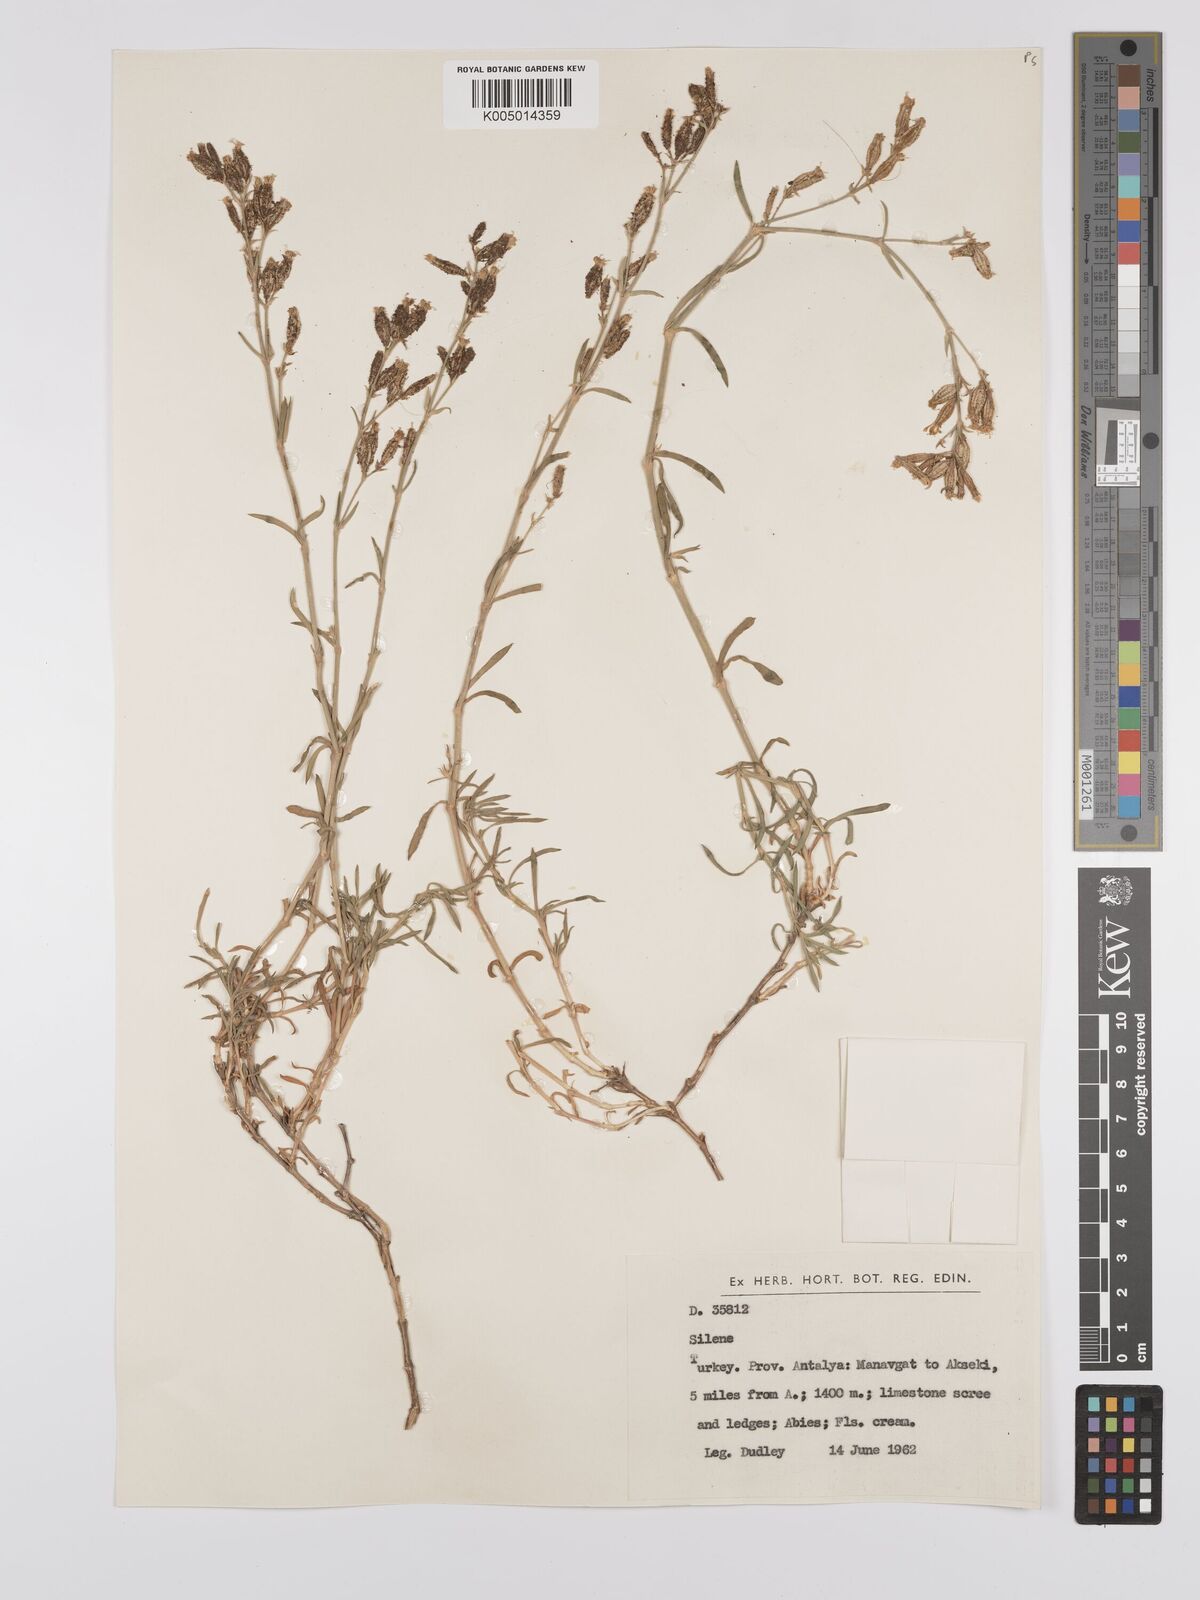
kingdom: Plantae
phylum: Tracheophyta
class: Magnoliopsida
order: Caryophyllales
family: Caryophyllaceae
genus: Silene
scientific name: Silene
